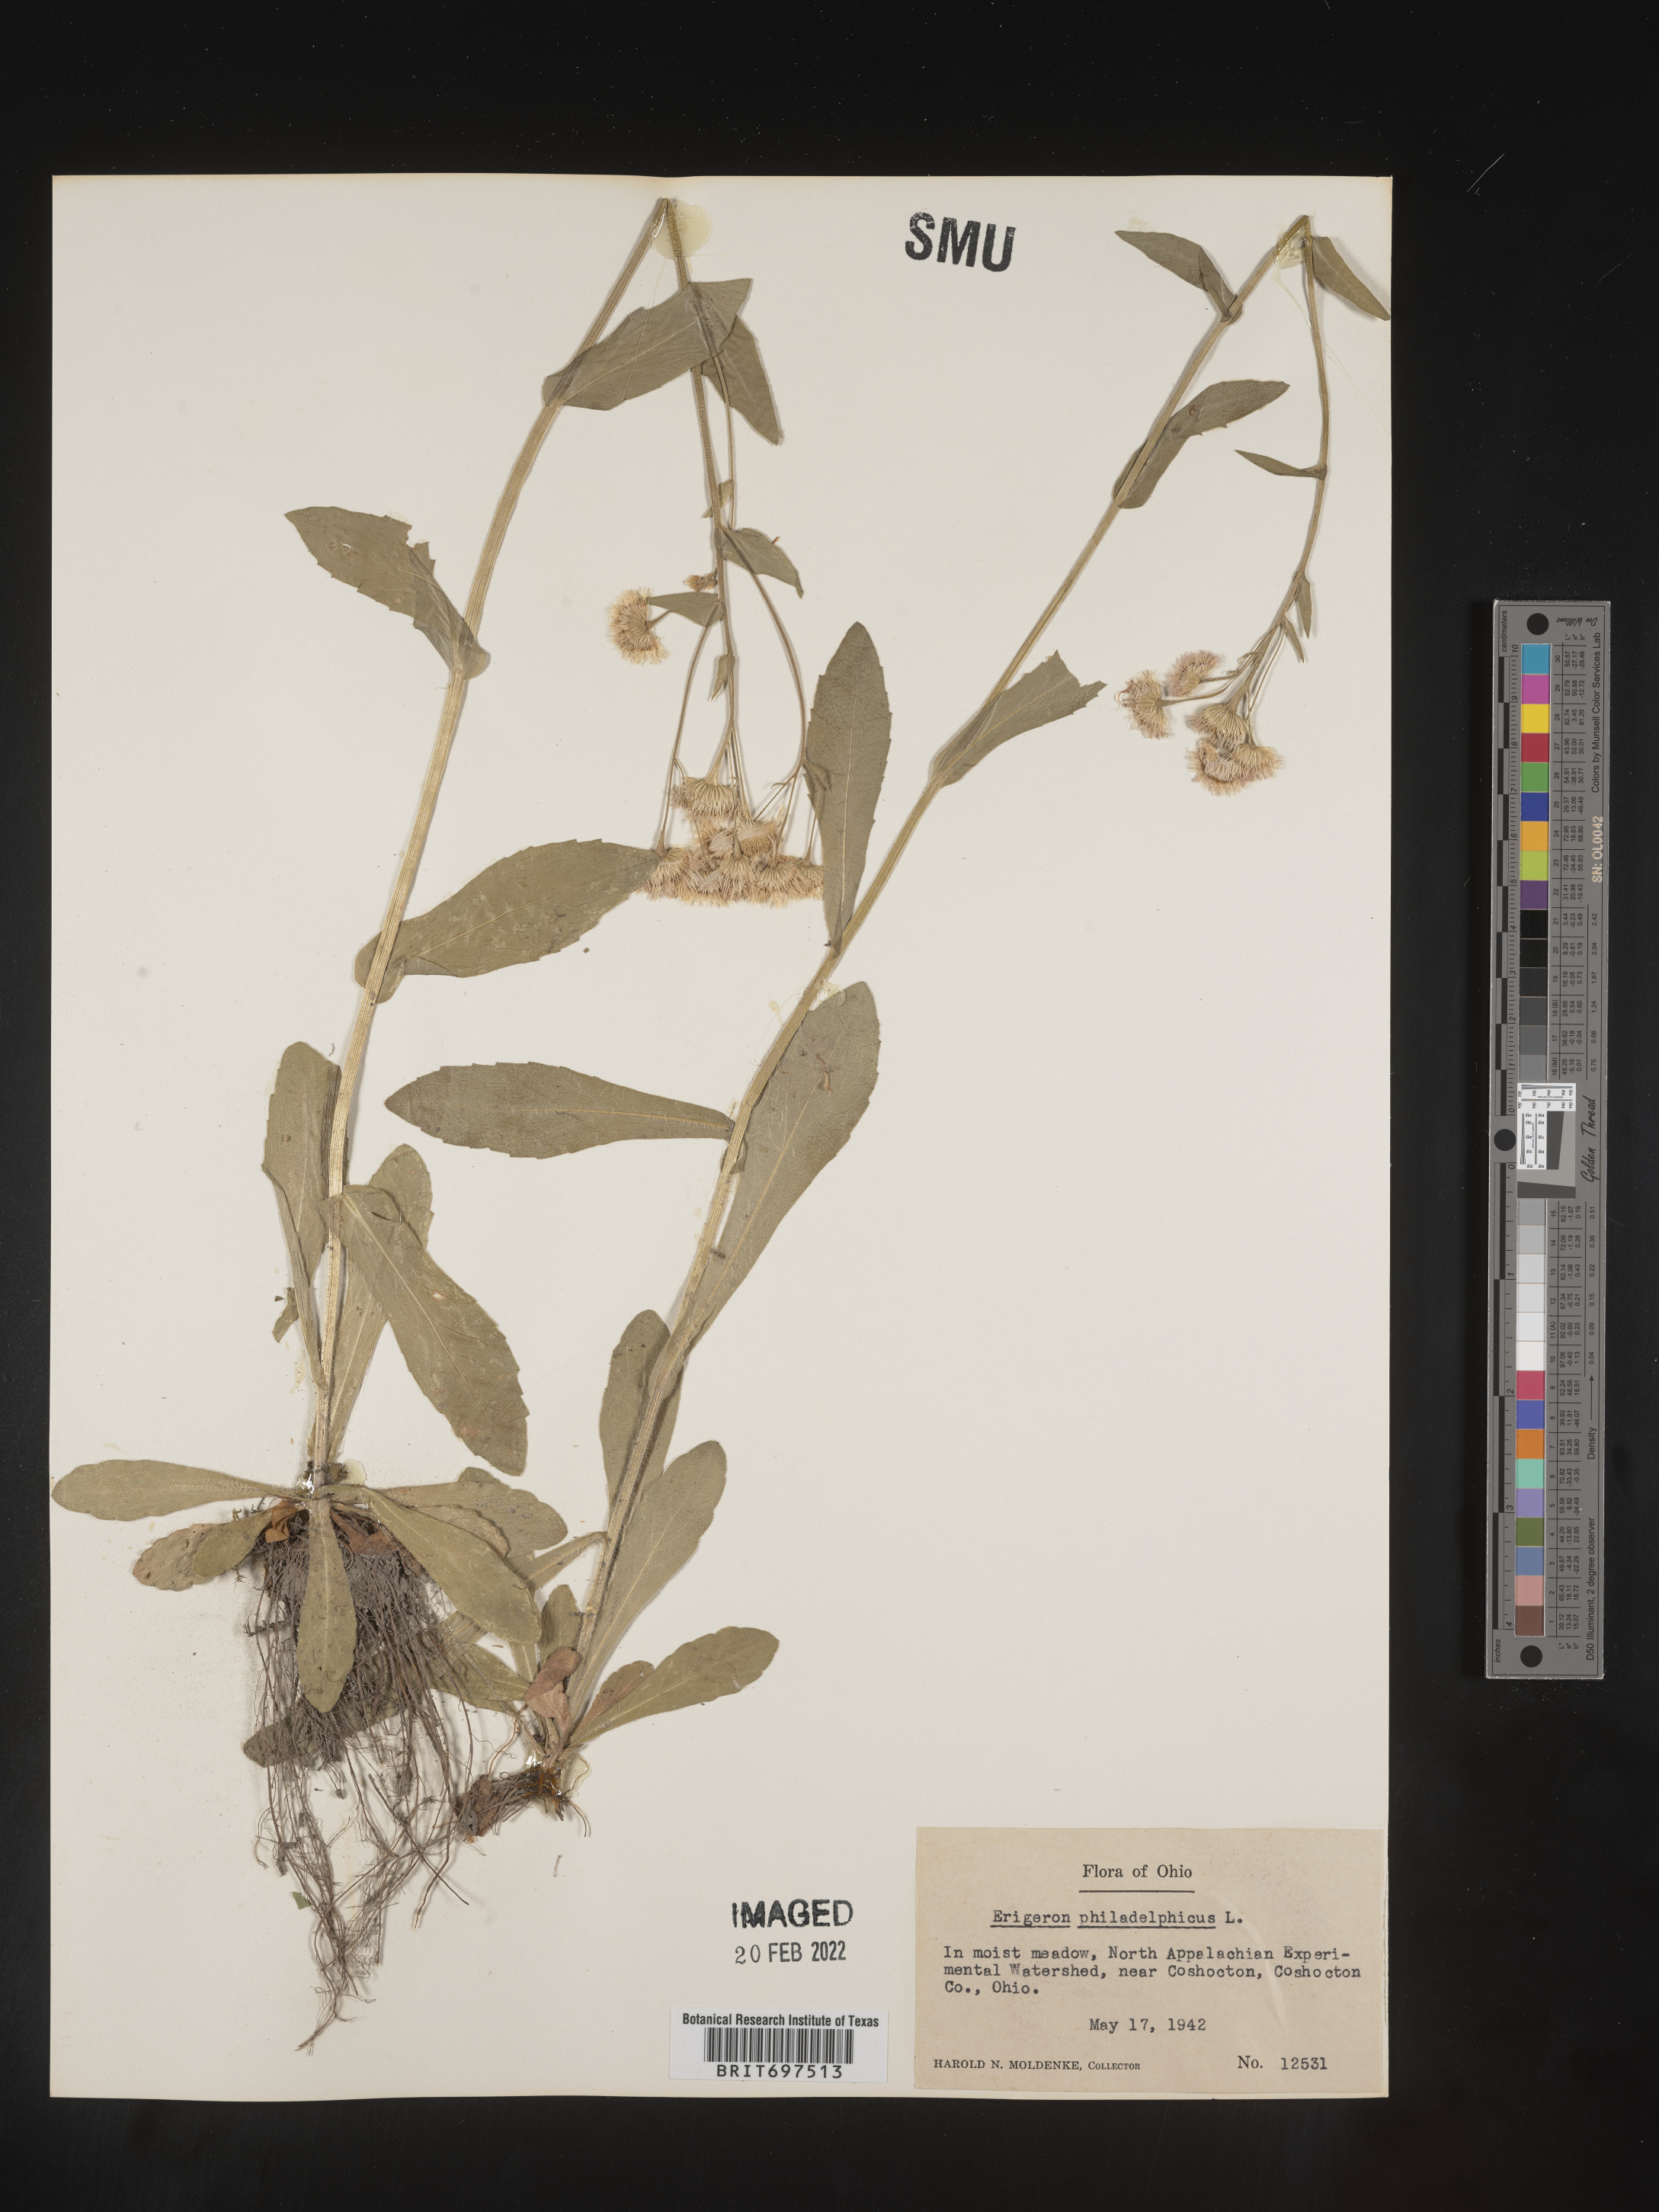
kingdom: Plantae
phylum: Tracheophyta
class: Magnoliopsida
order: Asterales
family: Asteraceae
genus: Erigeron
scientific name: Erigeron philadelphicus
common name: Robin's-plantain
